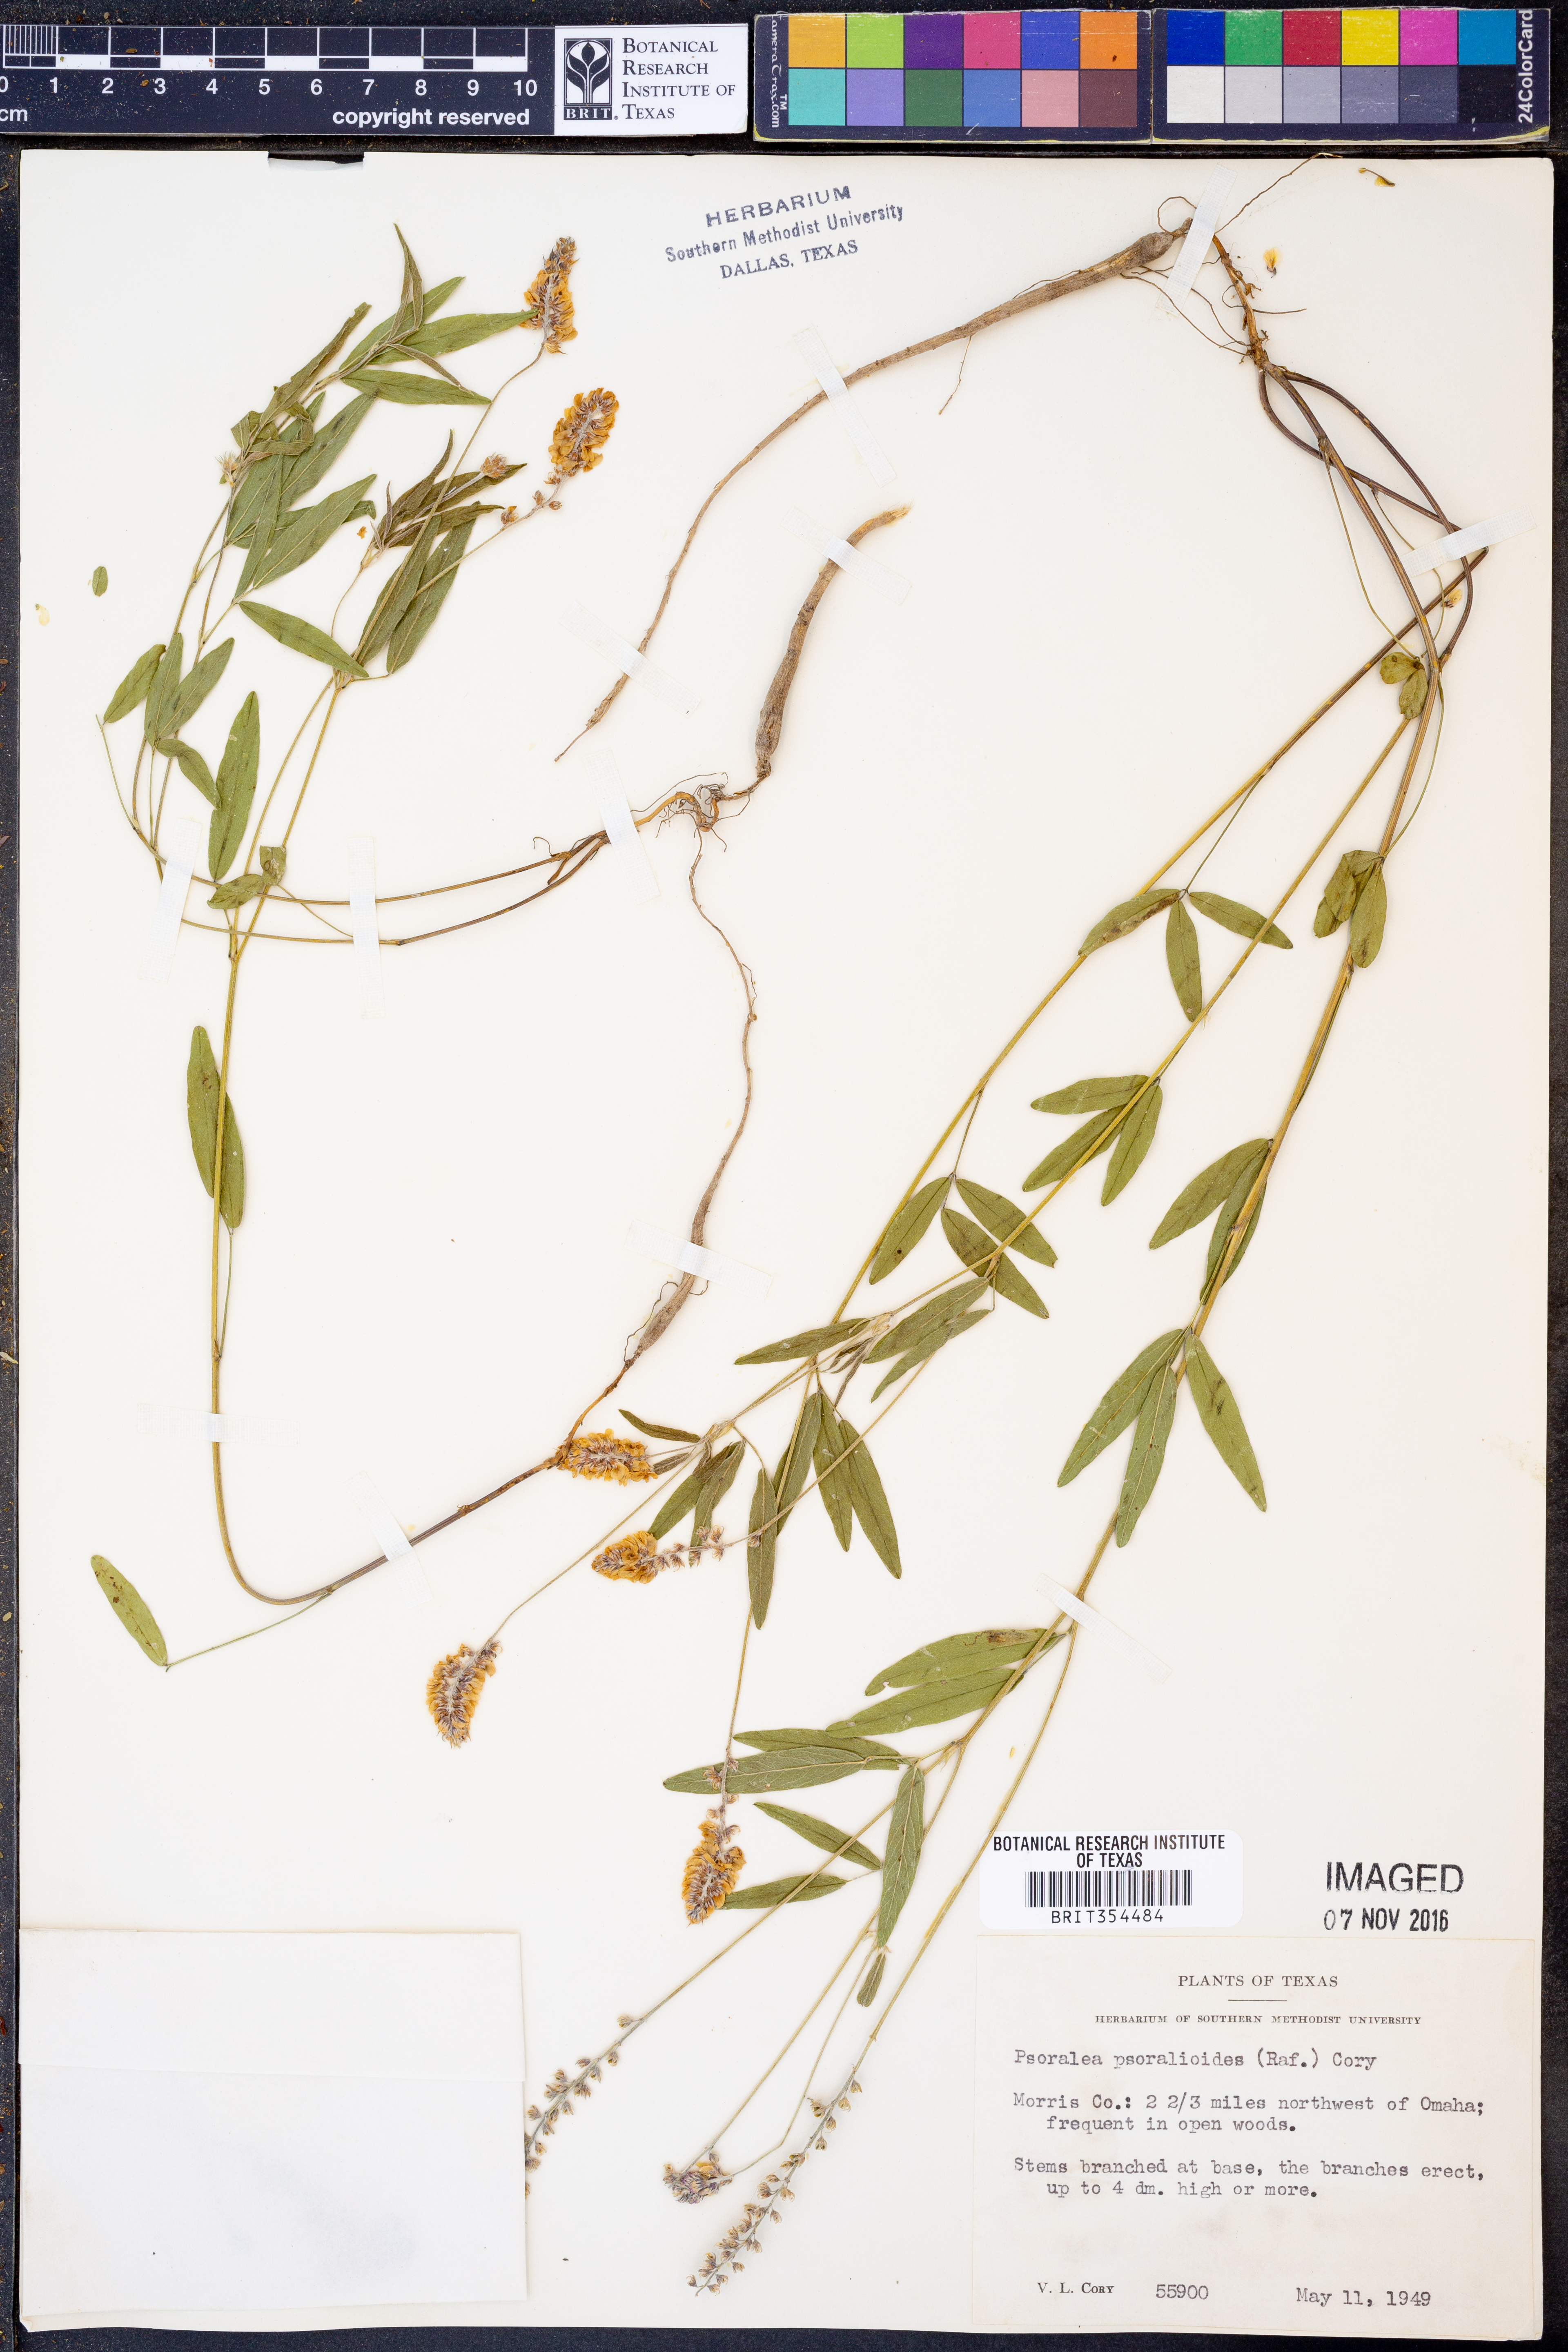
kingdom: Plantae
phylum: Tracheophyta
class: Magnoliopsida
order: Fabales
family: Fabaceae
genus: Orbexilum
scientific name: Orbexilum psoralioides
